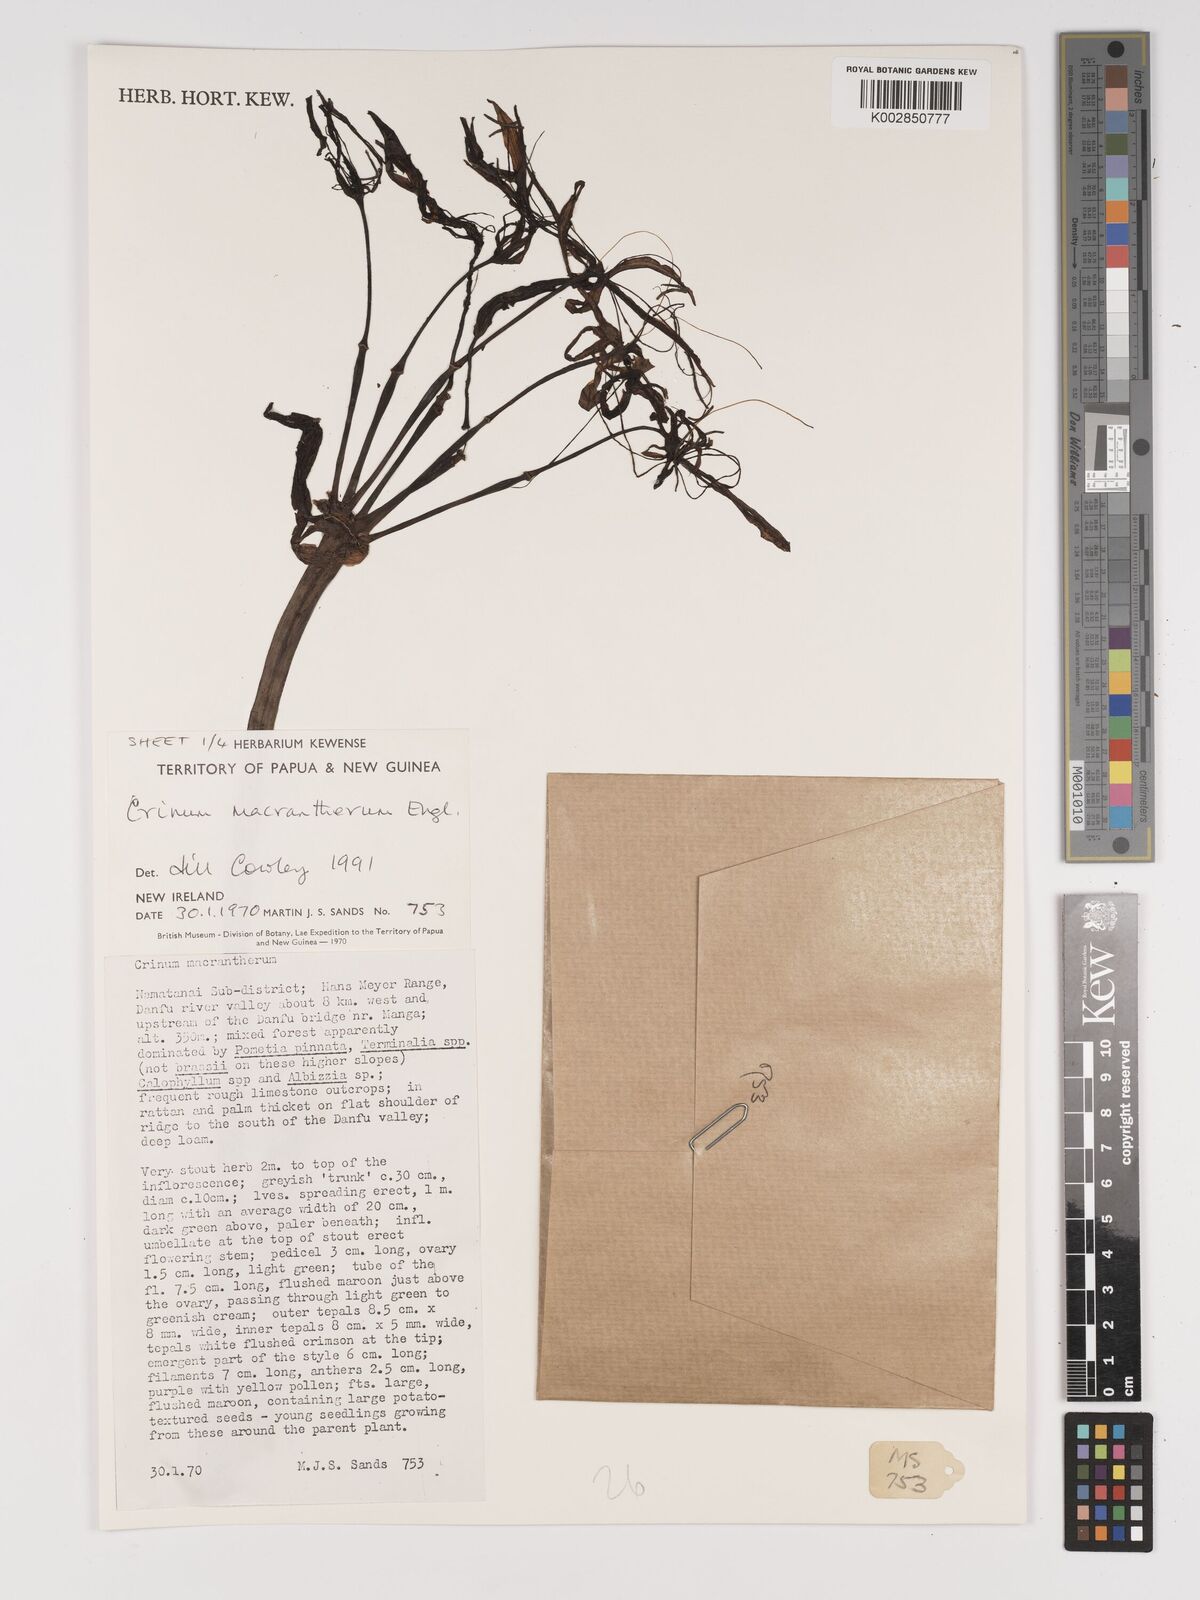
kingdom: Plantae
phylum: Tracheophyta
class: Liliopsida
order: Asparagales
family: Amaryllidaceae
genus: Crinum
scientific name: Crinum asiaticum
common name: Poisonbulb
